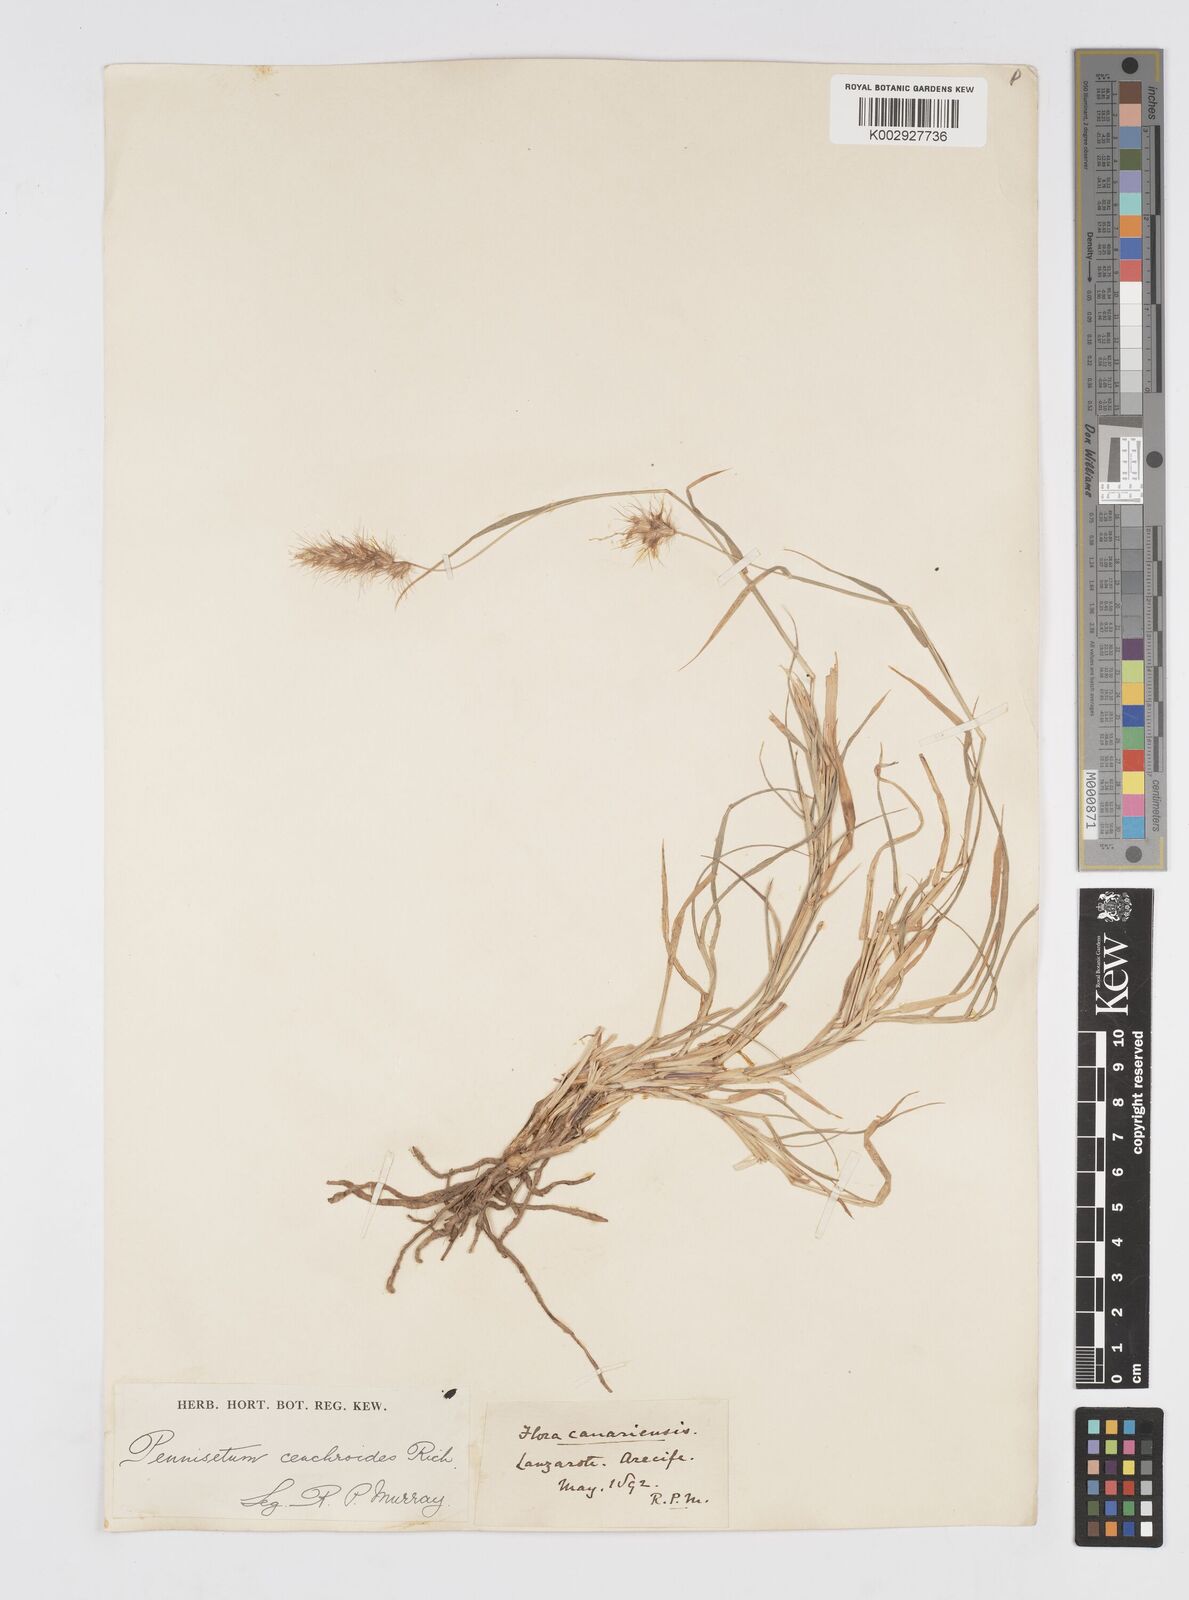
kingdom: Plantae
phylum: Tracheophyta
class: Liliopsida
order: Poales
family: Poaceae
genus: Cenchrus
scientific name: Cenchrus ciliaris
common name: Buffelgrass
